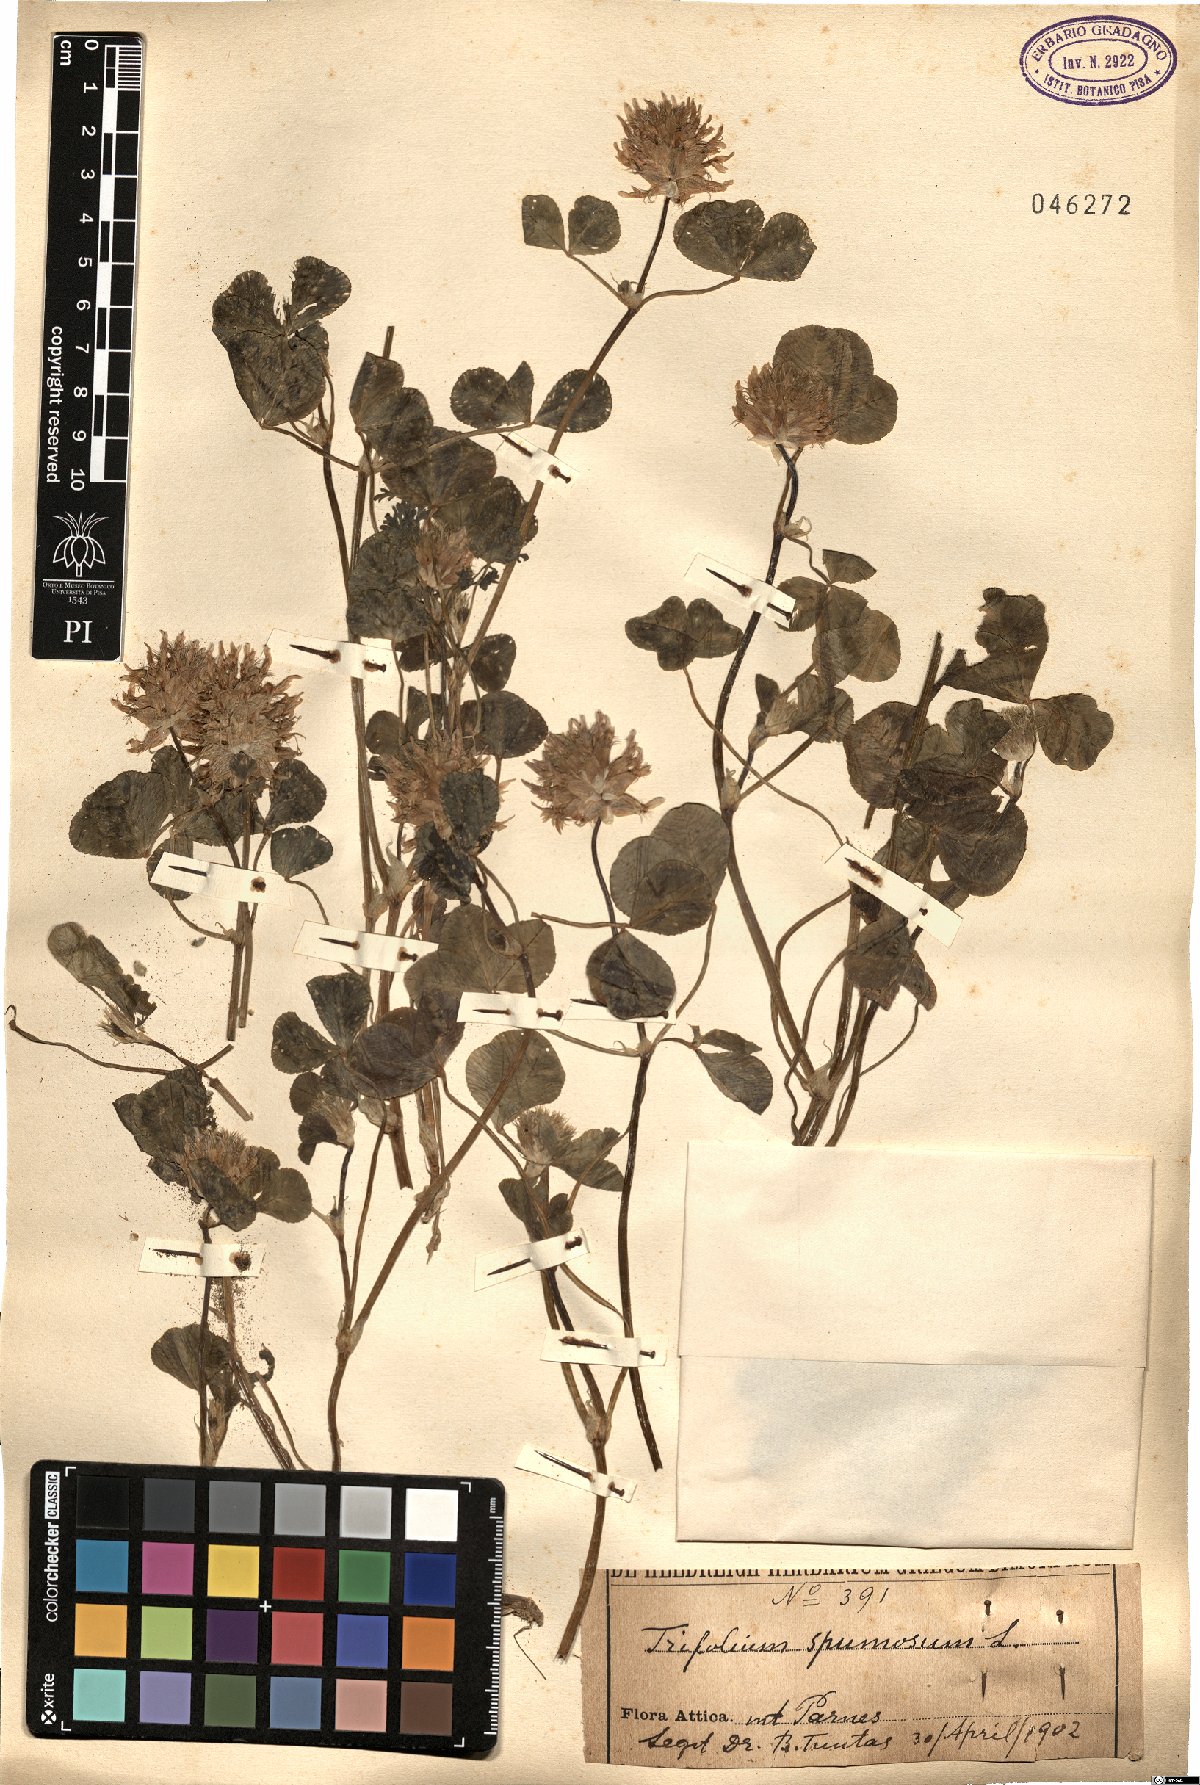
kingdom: Plantae
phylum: Tracheophyta
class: Magnoliopsida
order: Fabales
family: Fabaceae
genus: Trifolium
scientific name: Trifolium spumosum
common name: Mediterranean clover
